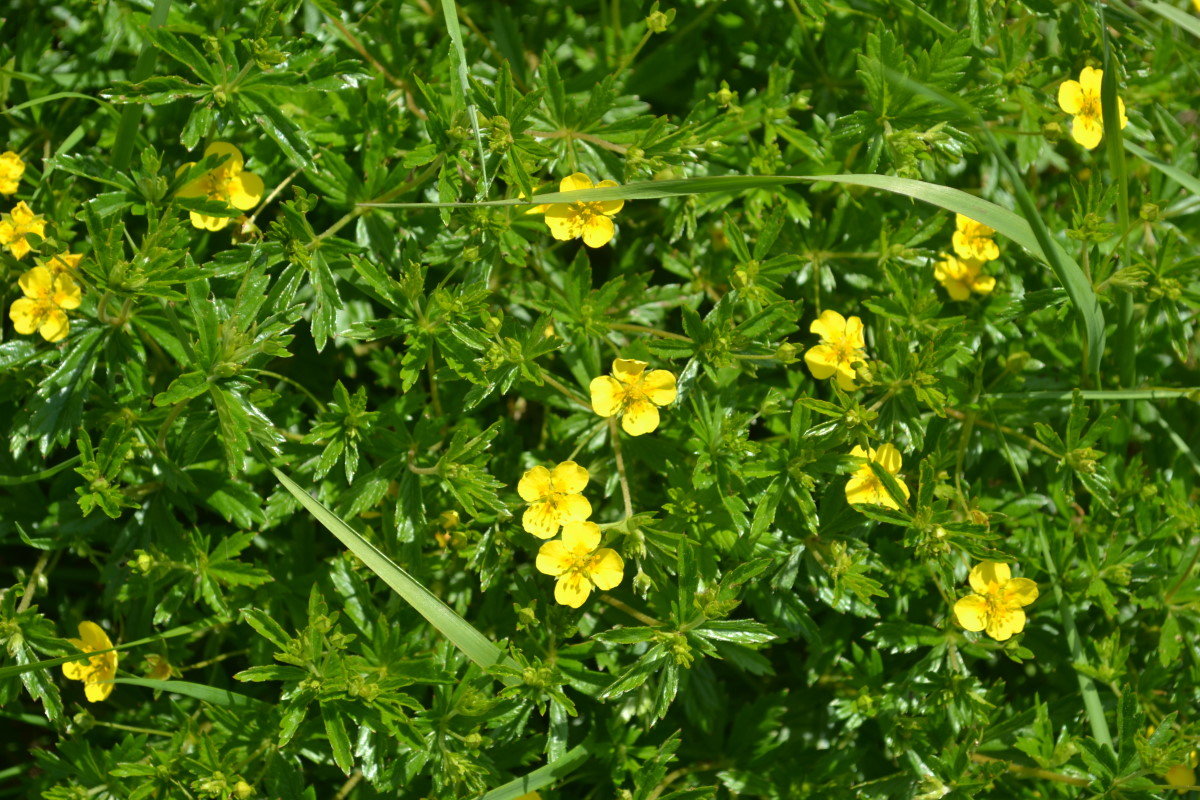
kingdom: Plantae
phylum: Tracheophyta
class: Magnoliopsida
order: Rosales
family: Rosaceae
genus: Potentilla
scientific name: Potentilla erecta
